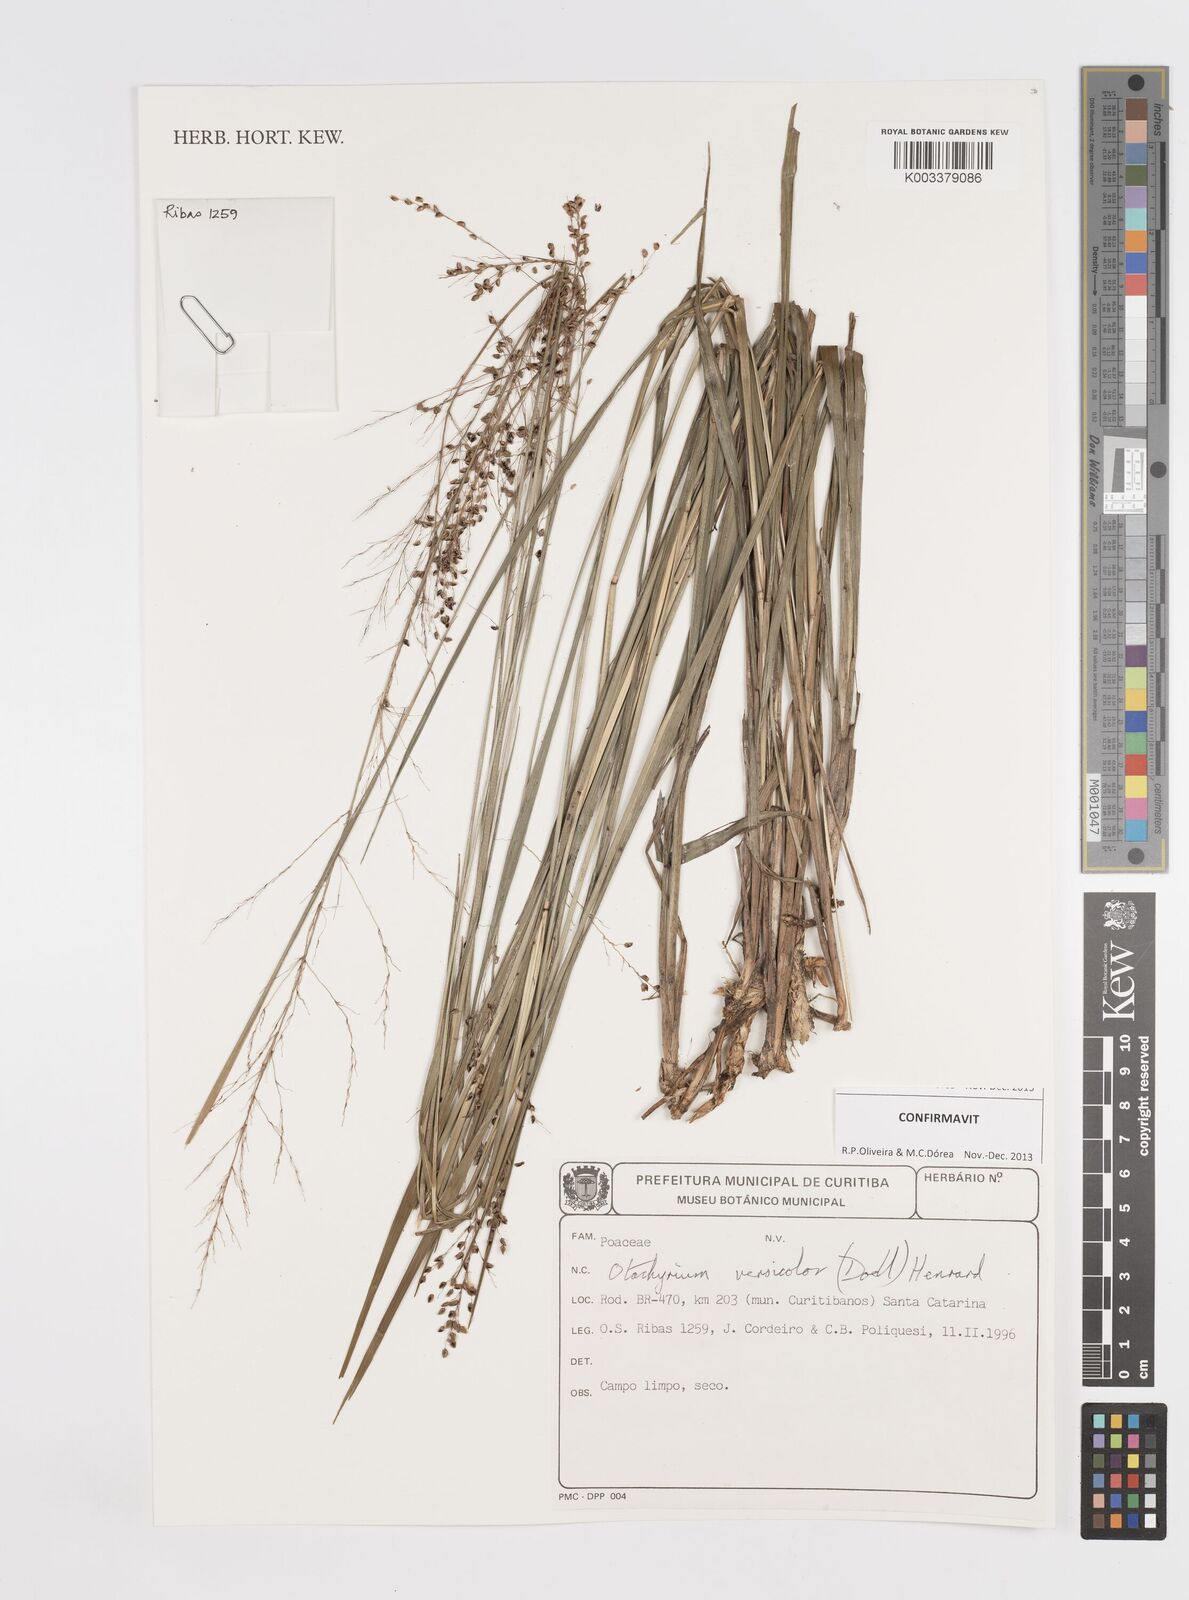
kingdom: Plantae
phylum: Tracheophyta
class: Liliopsida
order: Poales
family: Poaceae
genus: Otachyrium
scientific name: Otachyrium versicolor
